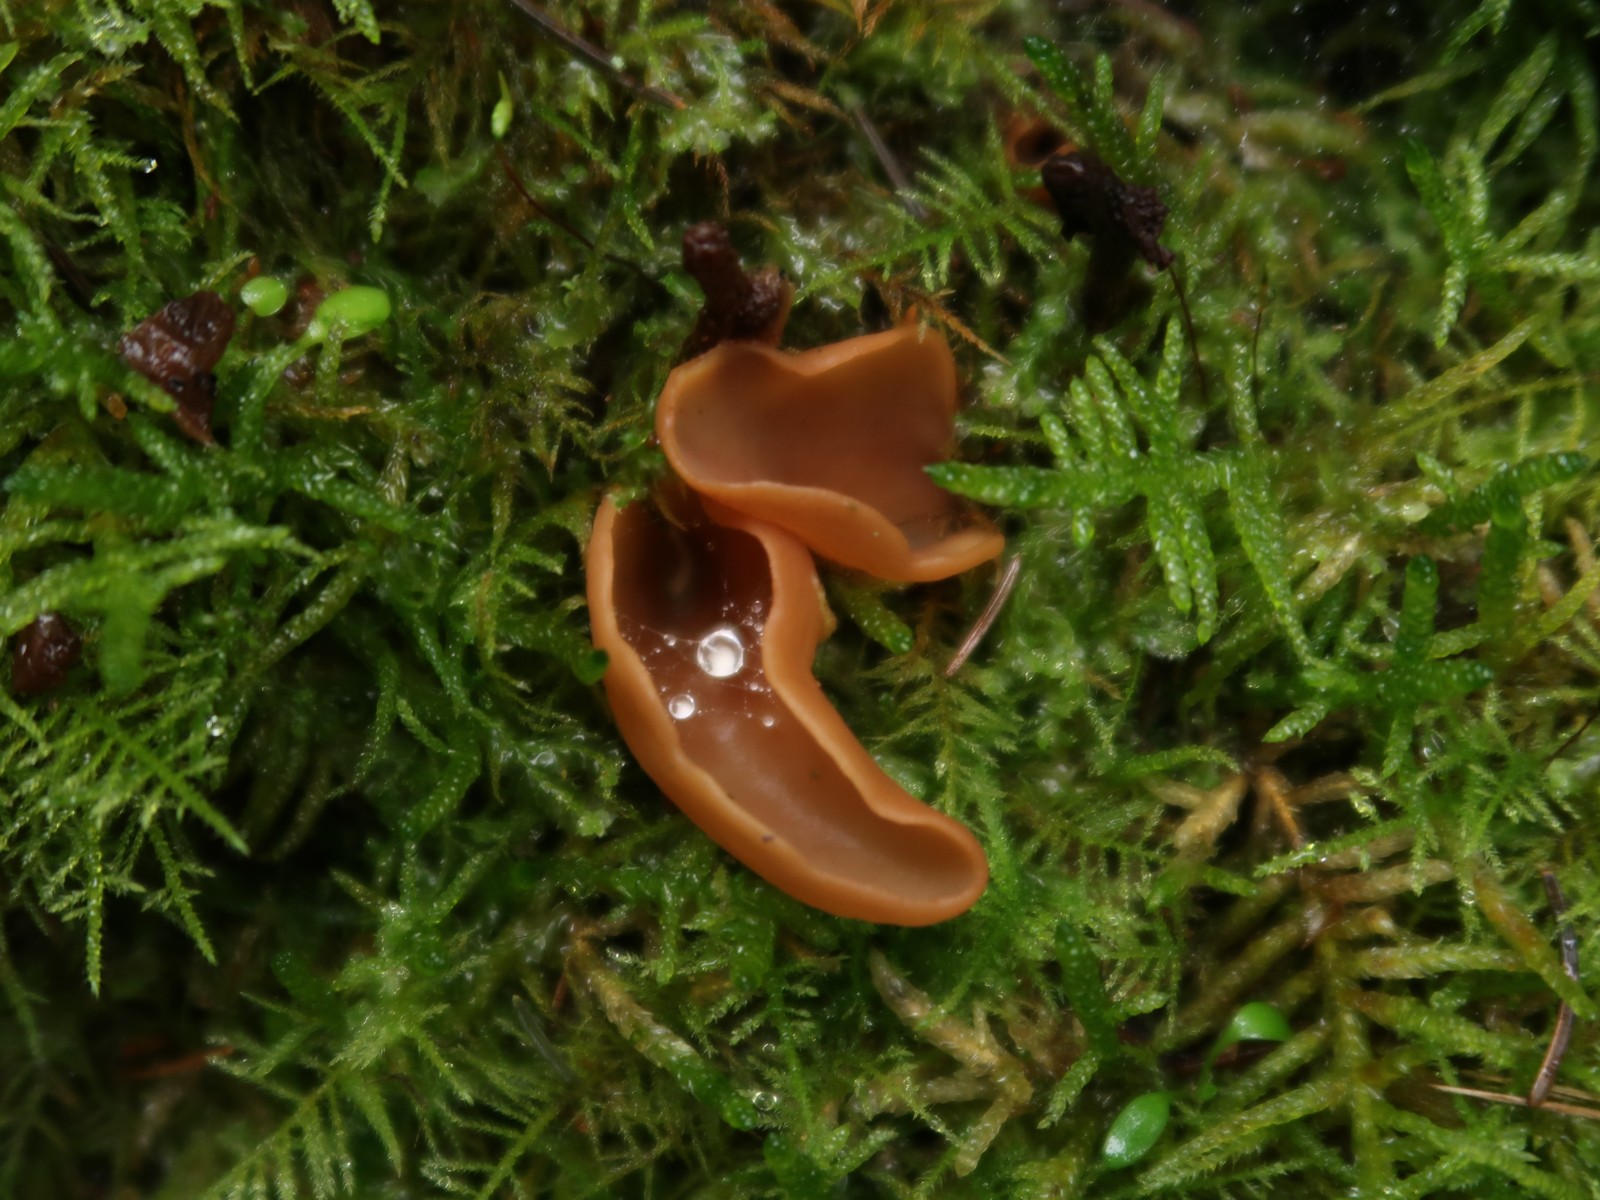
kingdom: Fungi
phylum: Ascomycota
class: Pezizomycetes
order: Pezizales
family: Otideaceae
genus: Otidea
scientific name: Otidea
